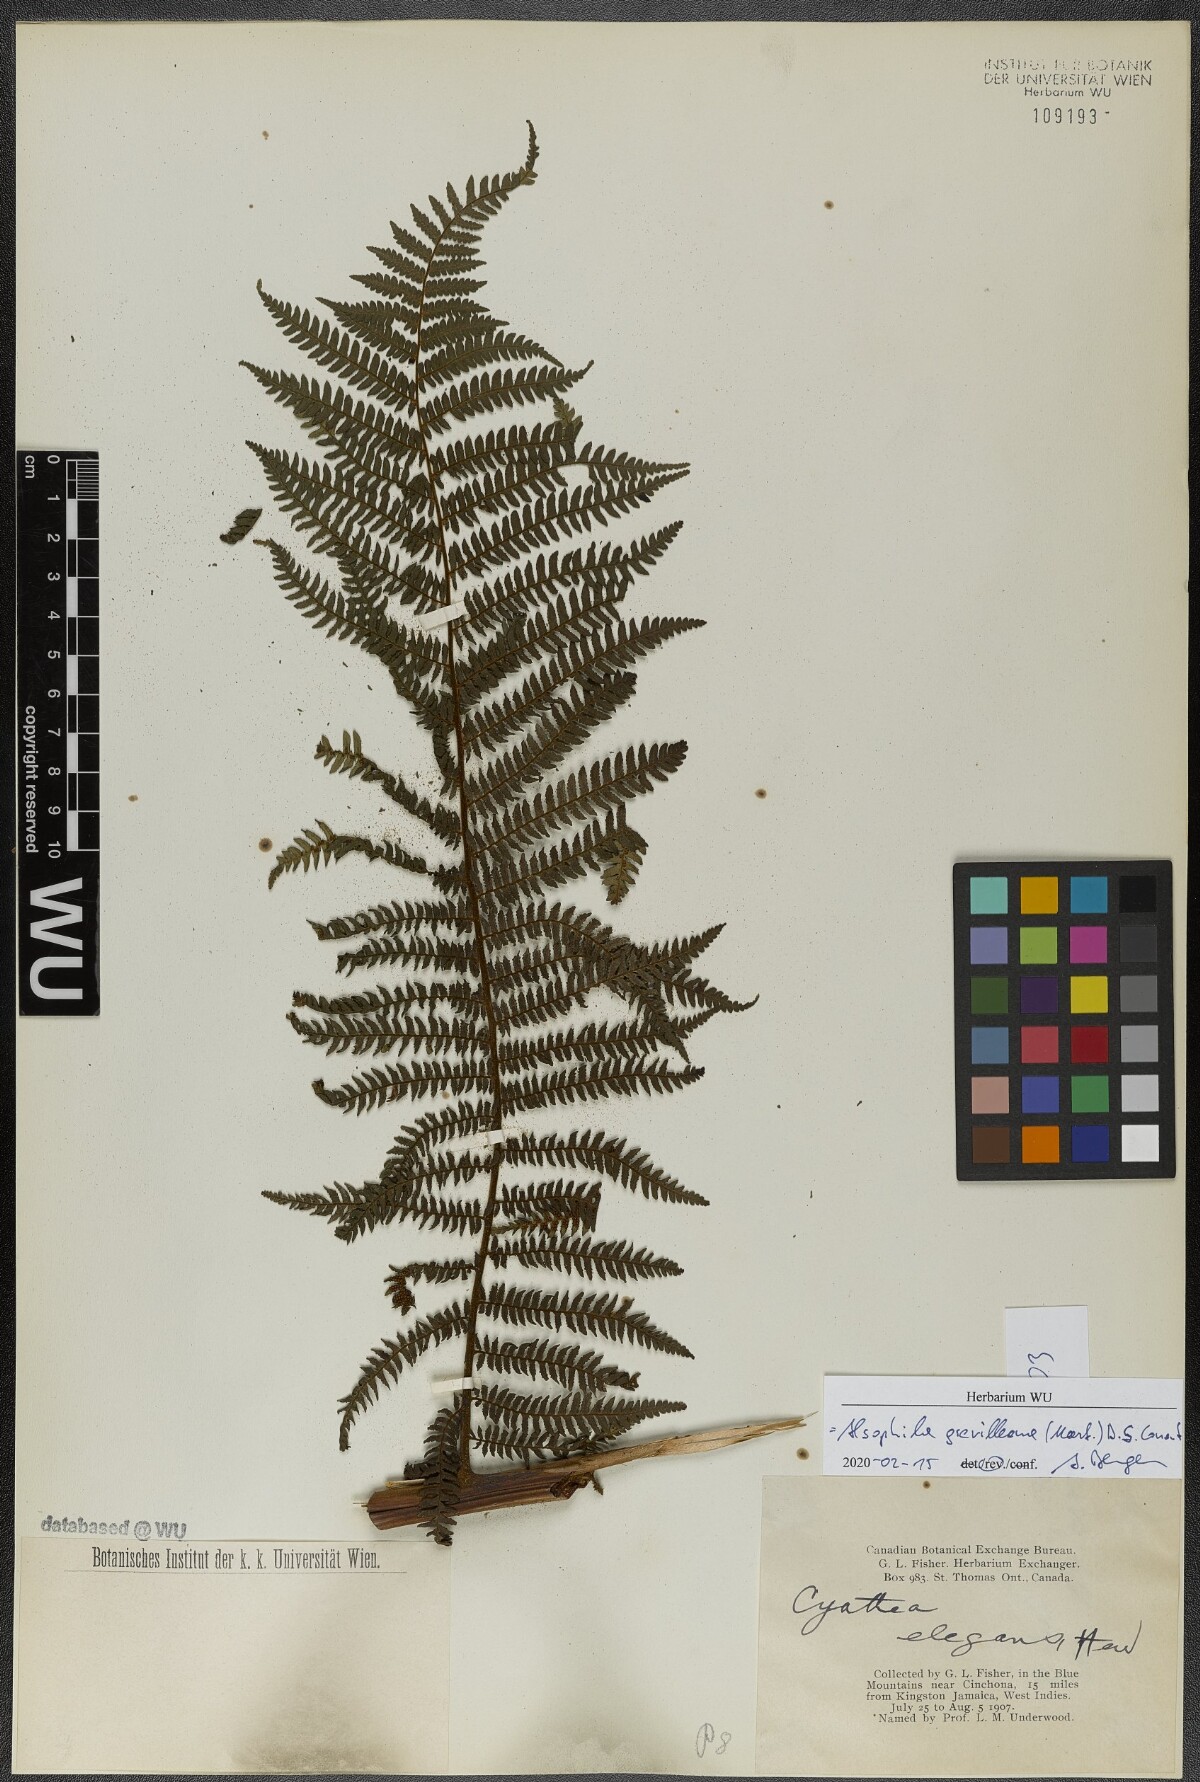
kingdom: Plantae
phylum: Tracheophyta
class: Polypodiopsida
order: Cyatheales
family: Cyatheaceae
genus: Alsophila
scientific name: Alsophila grevilleana
